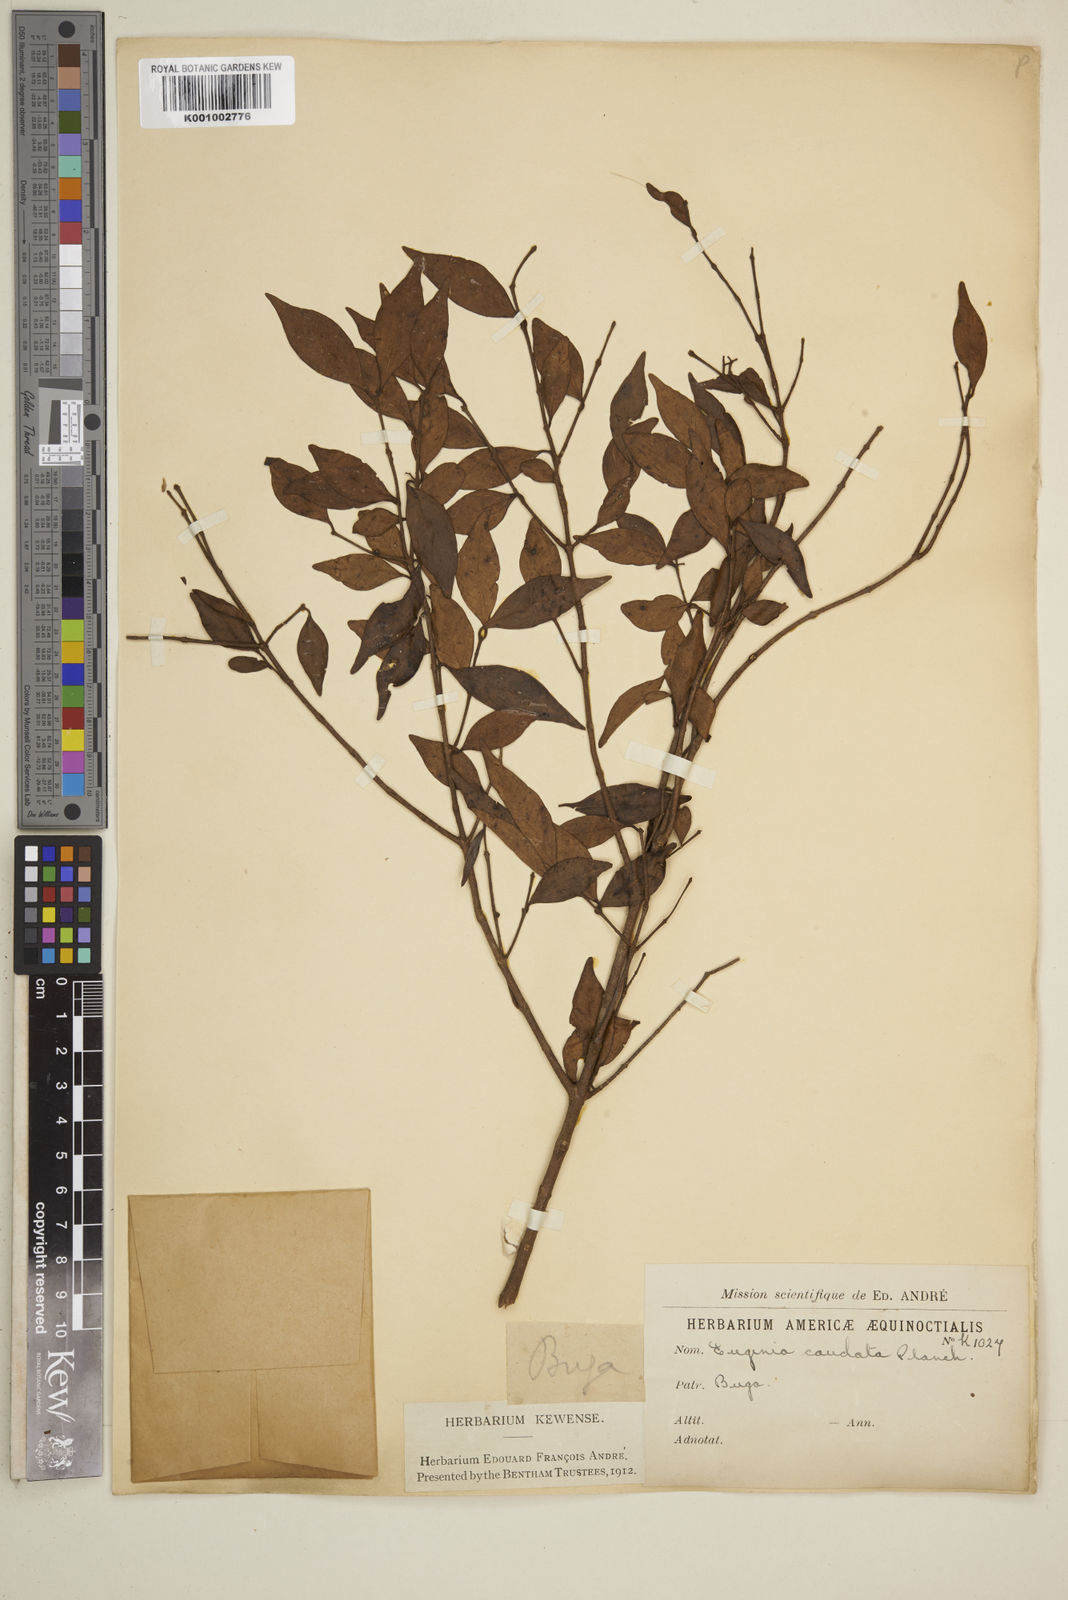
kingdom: Plantae
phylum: Tracheophyta
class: Magnoliopsida
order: Myrtales
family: Myrtaceae
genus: Syzygium
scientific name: Syzygium urophyllum
